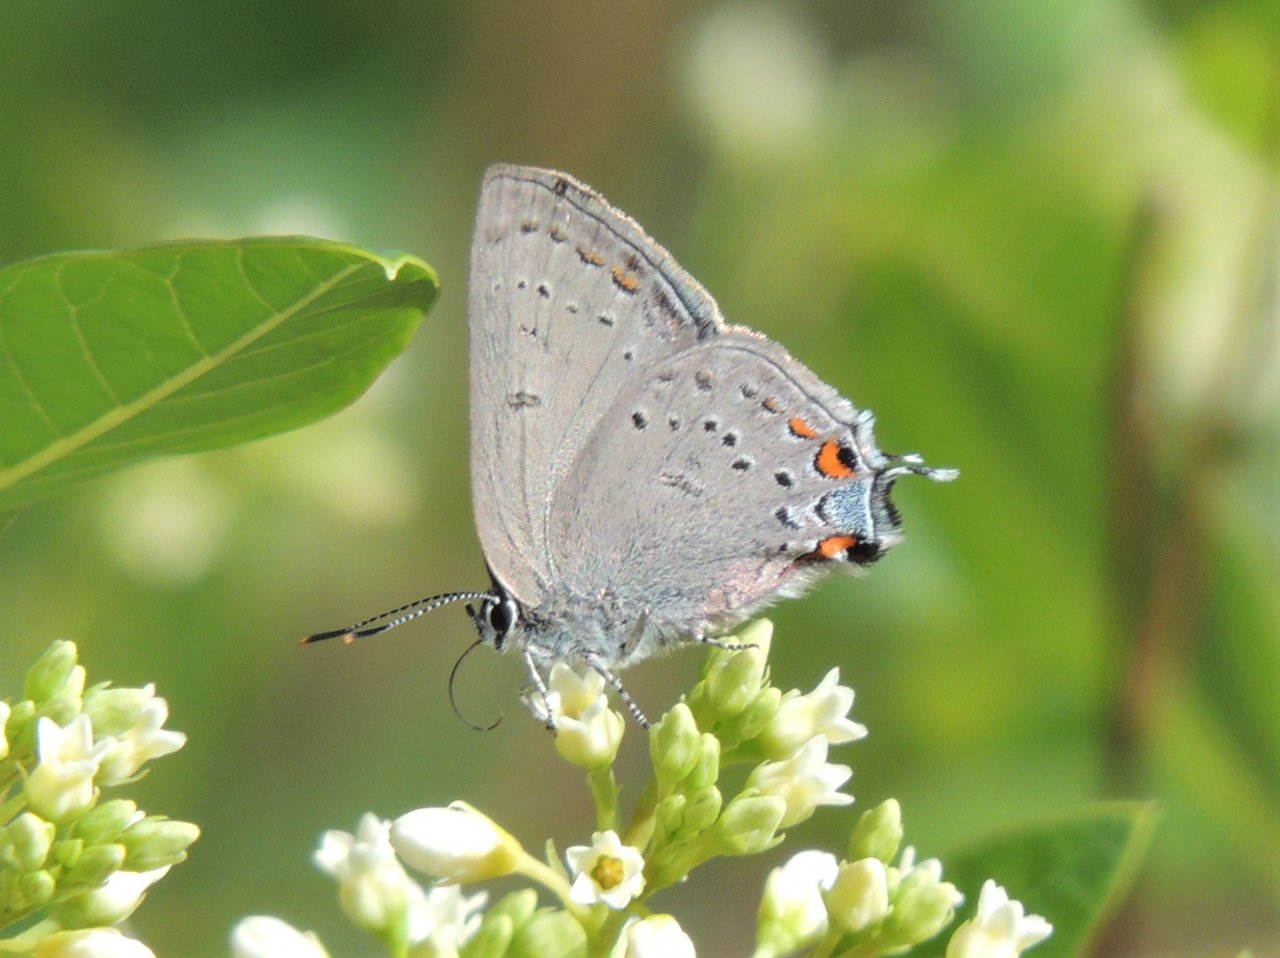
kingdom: Animalia
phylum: Arthropoda
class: Insecta
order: Lepidoptera
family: Lycaenidae
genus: Strymon
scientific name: Strymon acadica
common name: California Hairstreak
